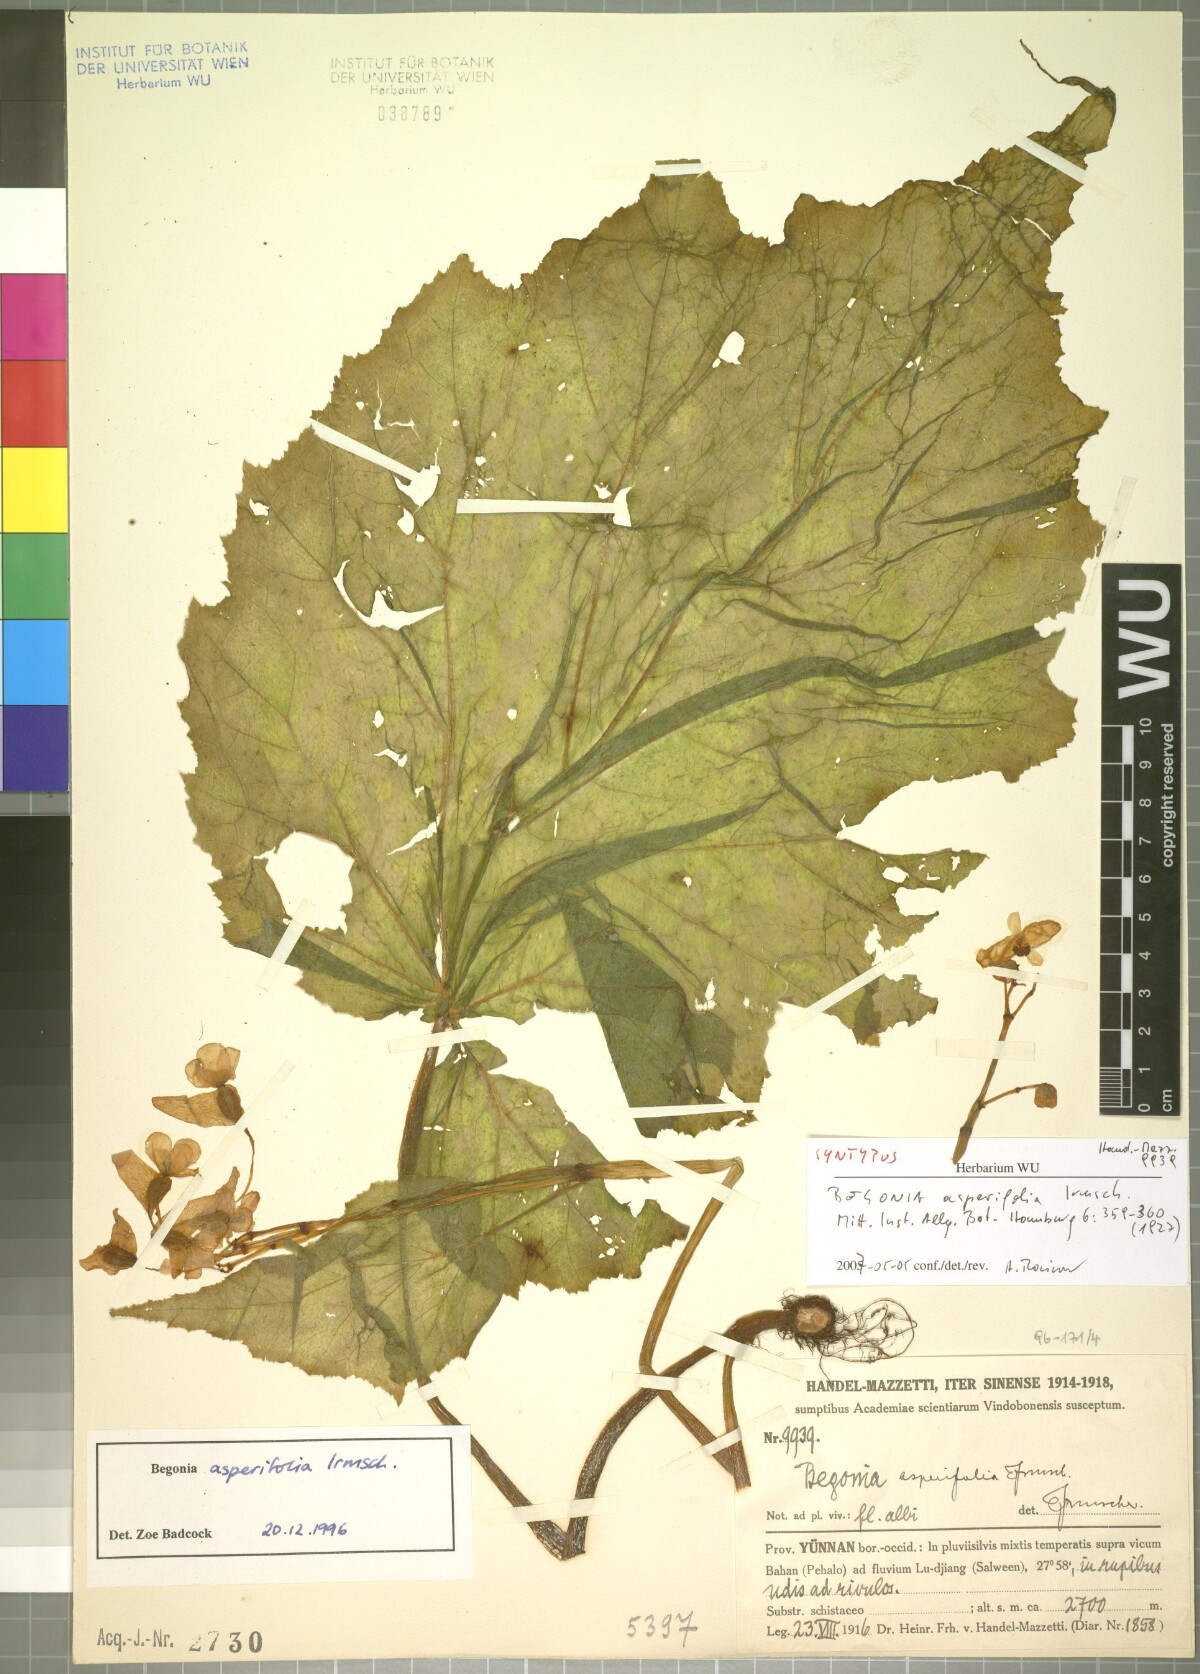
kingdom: Plantae
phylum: Tracheophyta
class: Magnoliopsida
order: Cucurbitales
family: Begoniaceae
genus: Begonia
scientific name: Begonia asperifolia
